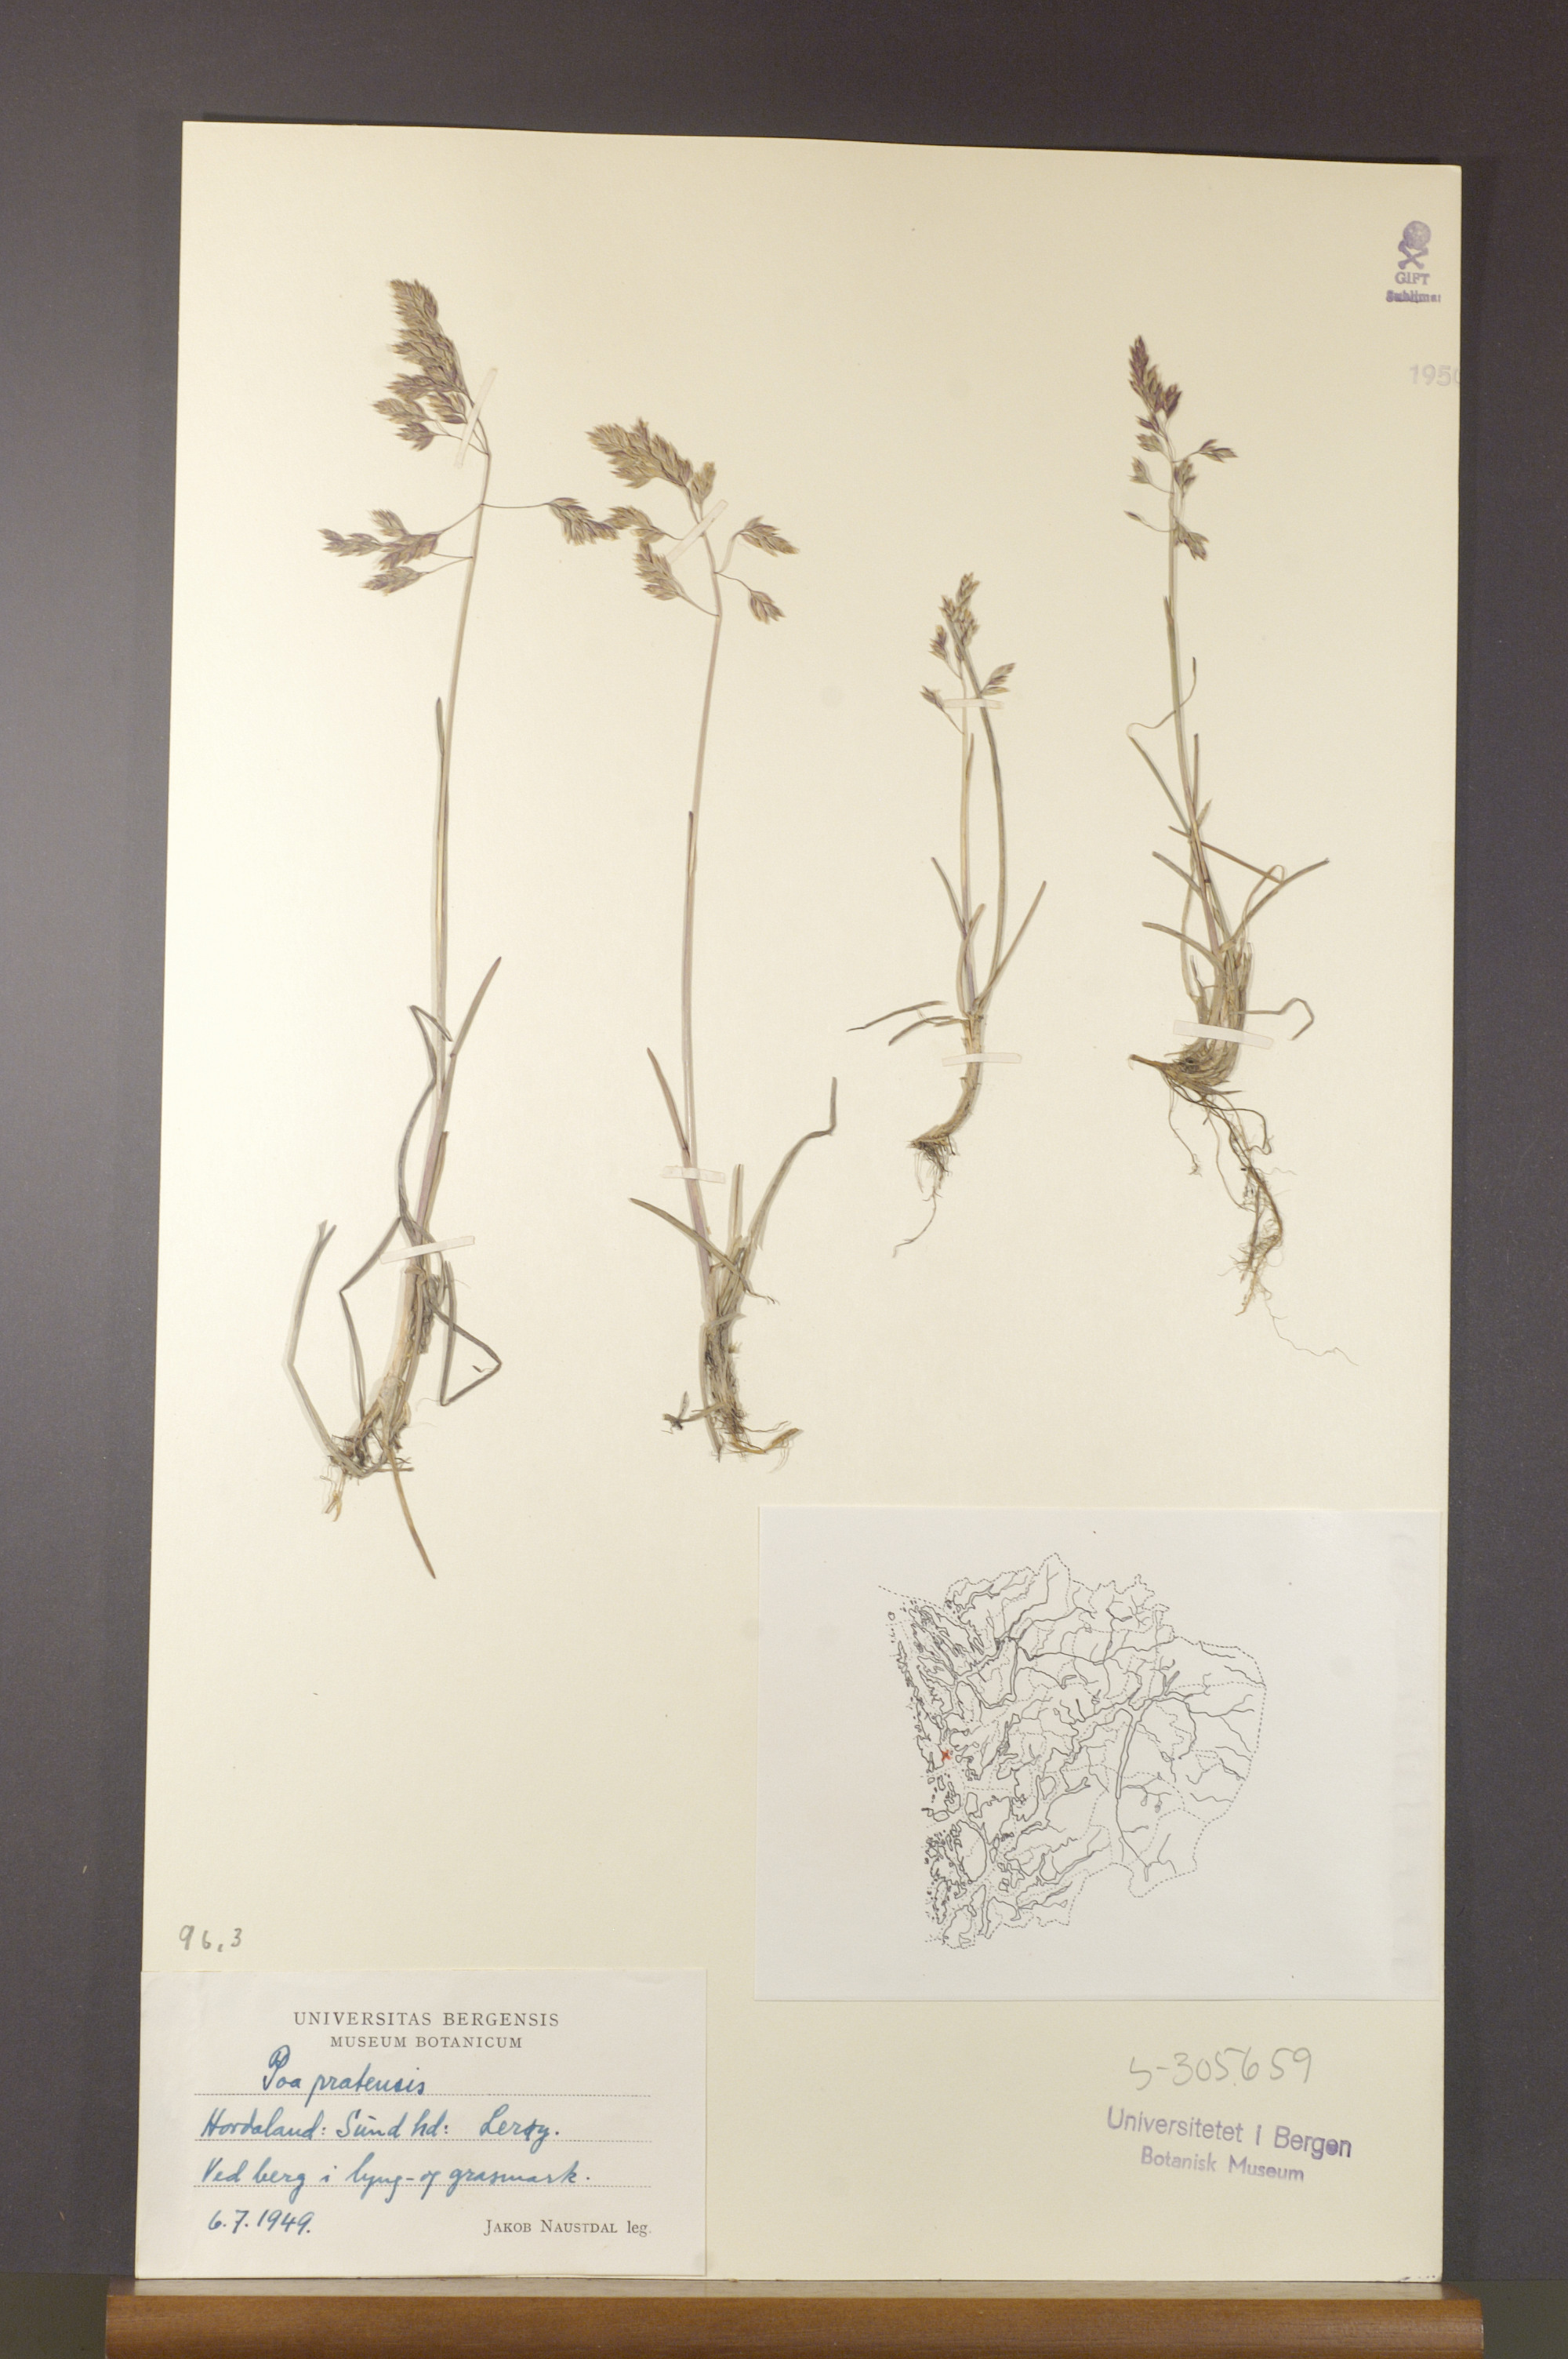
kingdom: Plantae
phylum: Tracheophyta
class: Liliopsida
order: Poales
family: Poaceae
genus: Poa
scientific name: Poa pratensis
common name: Kentucky bluegrass
